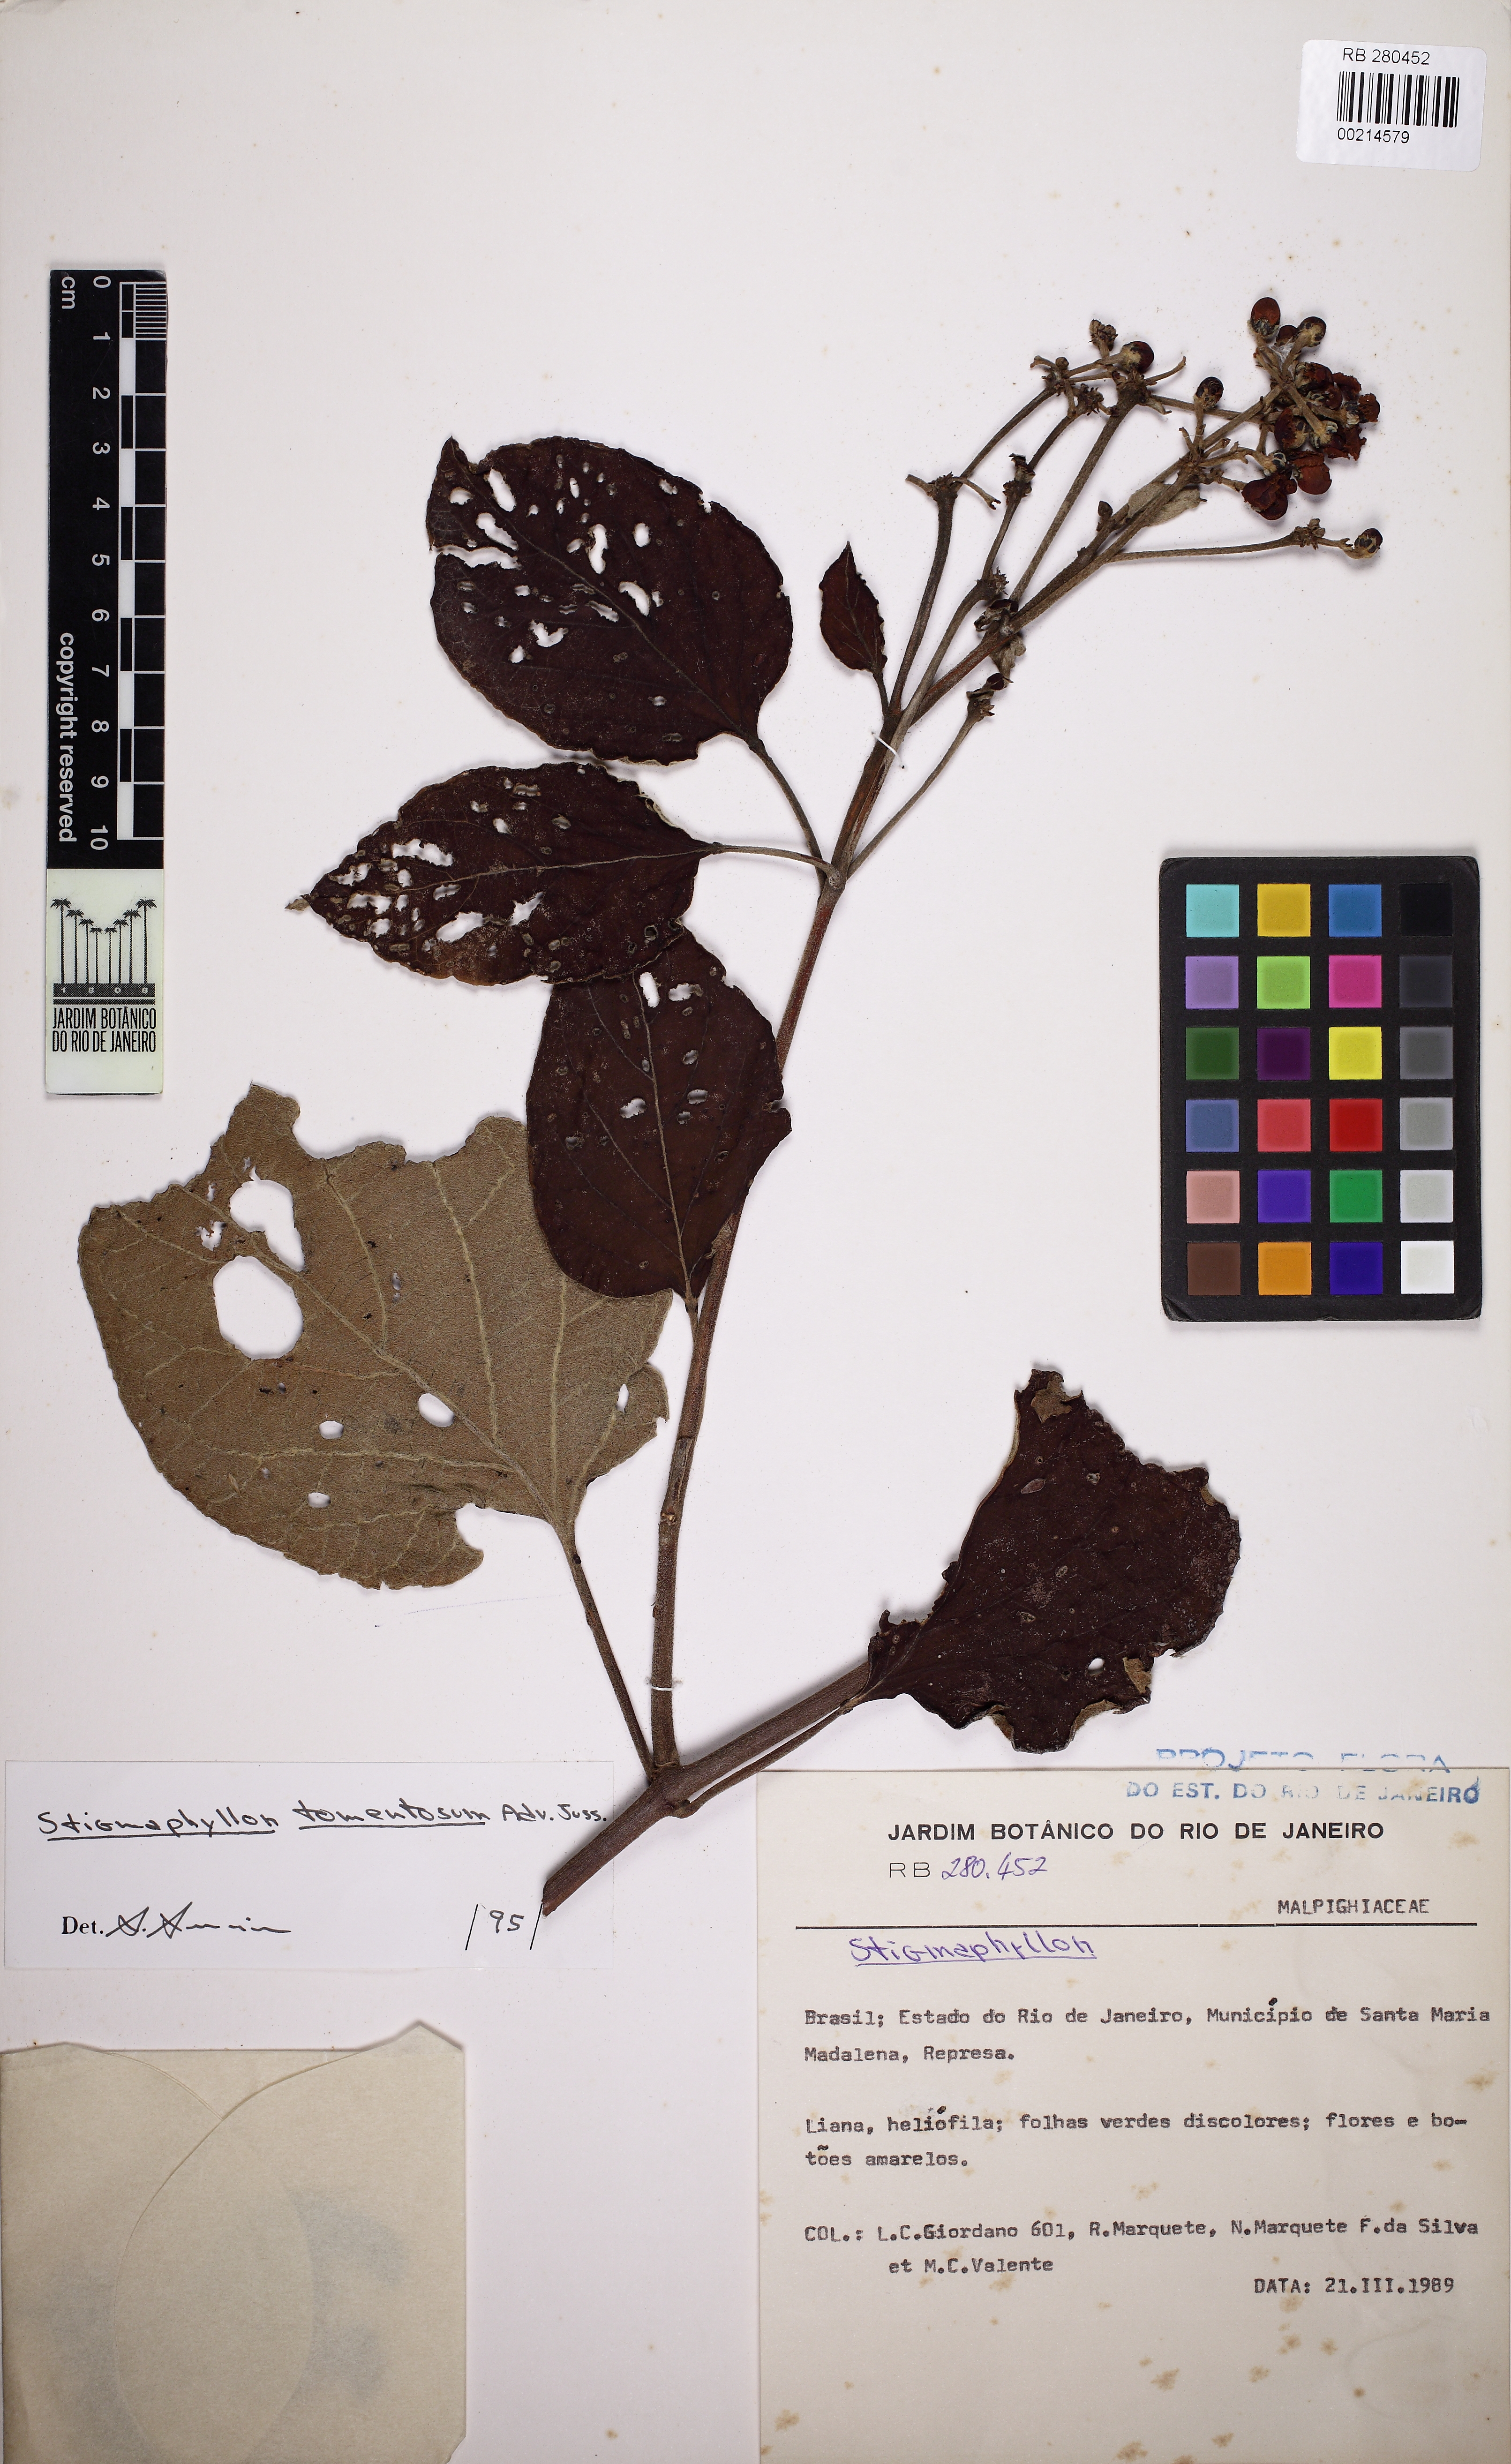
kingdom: Plantae
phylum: Tracheophyta
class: Magnoliopsida
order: Malpighiales
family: Malpighiaceae
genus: Stigmaphyllon
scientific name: Stigmaphyllon tomentosum
